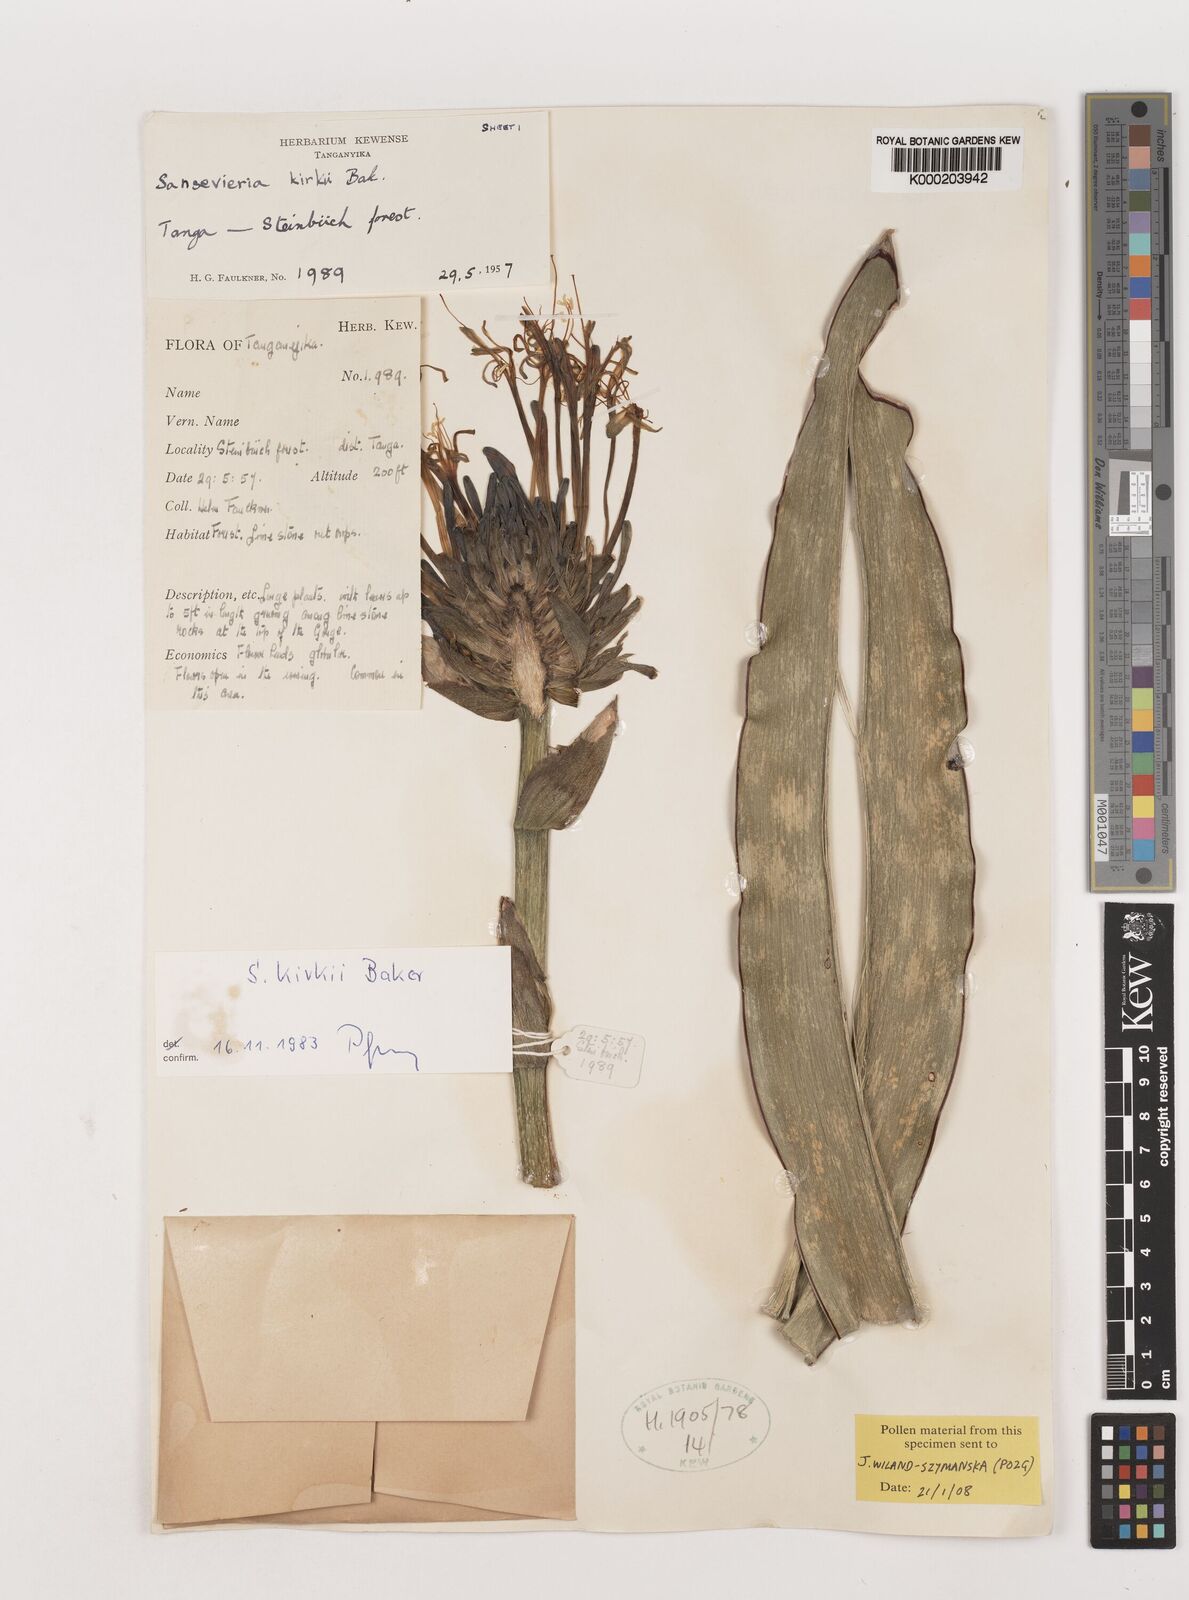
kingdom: Plantae
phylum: Tracheophyta
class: Liliopsida
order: Asparagales
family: Asparagaceae
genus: Dracaena
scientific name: Dracaena pethera
